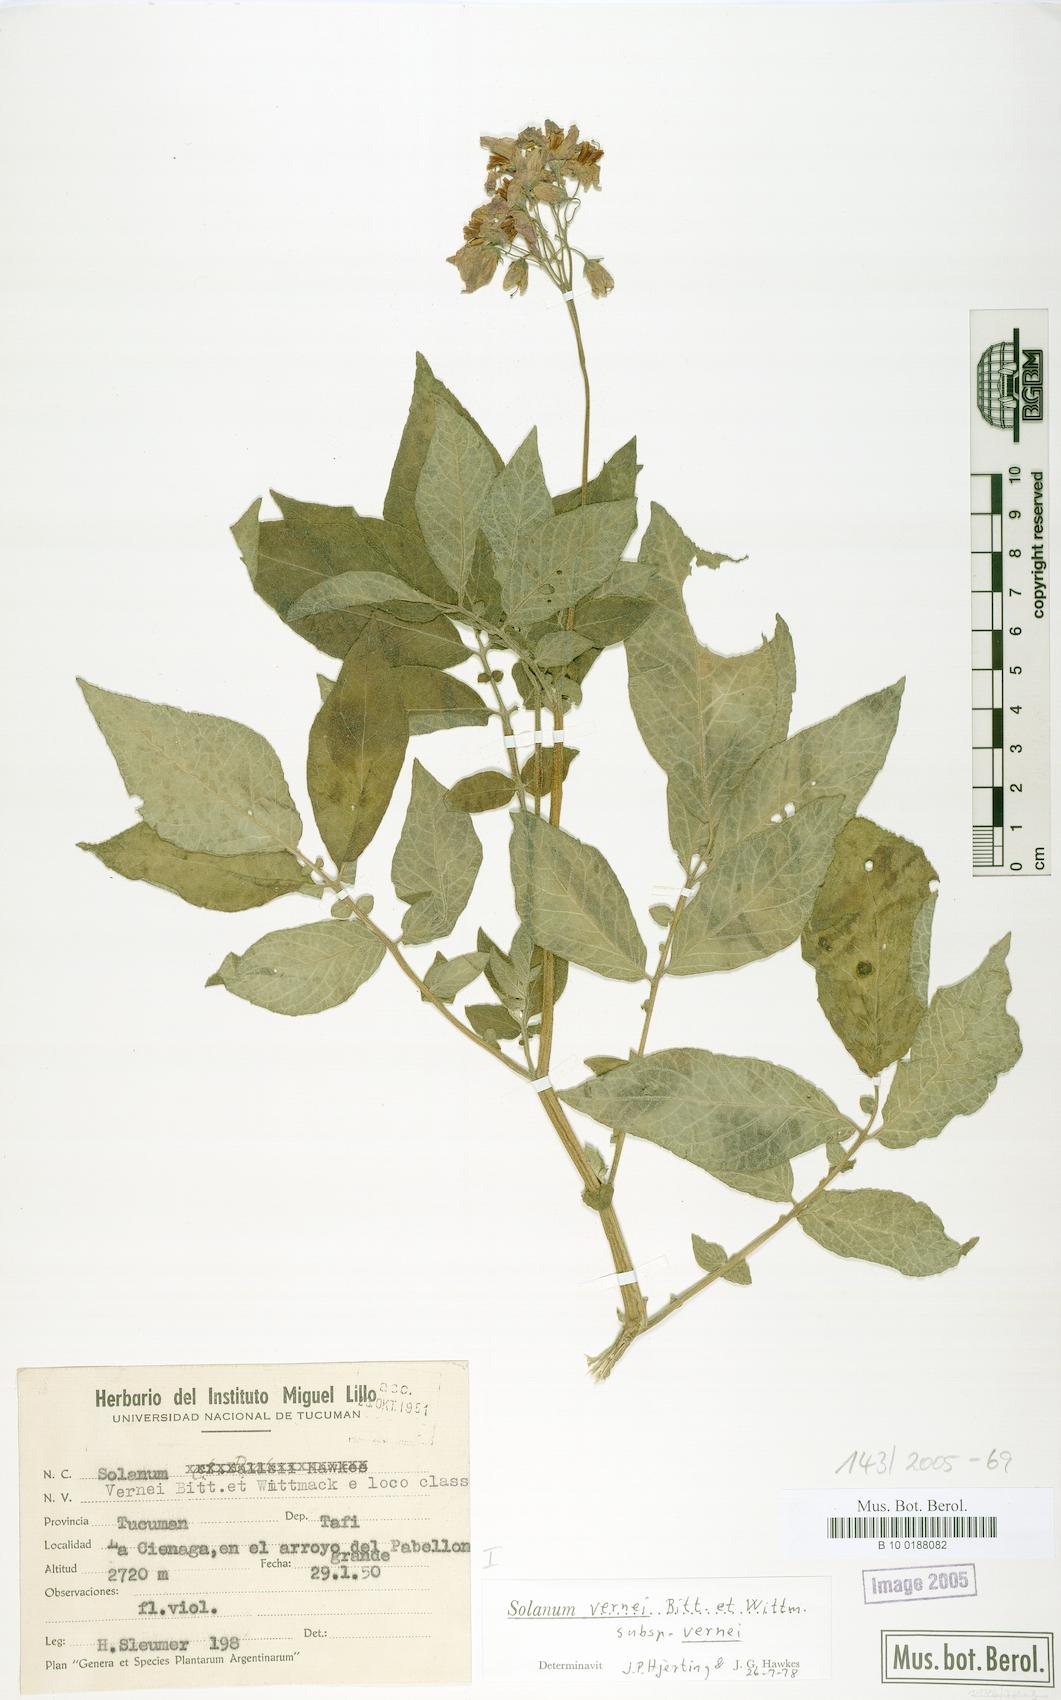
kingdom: Plantae
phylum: Tracheophyta
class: Magnoliopsida
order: Solanales
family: Solanaceae
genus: Solanum
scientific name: Solanum vernei
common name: Purple potato
